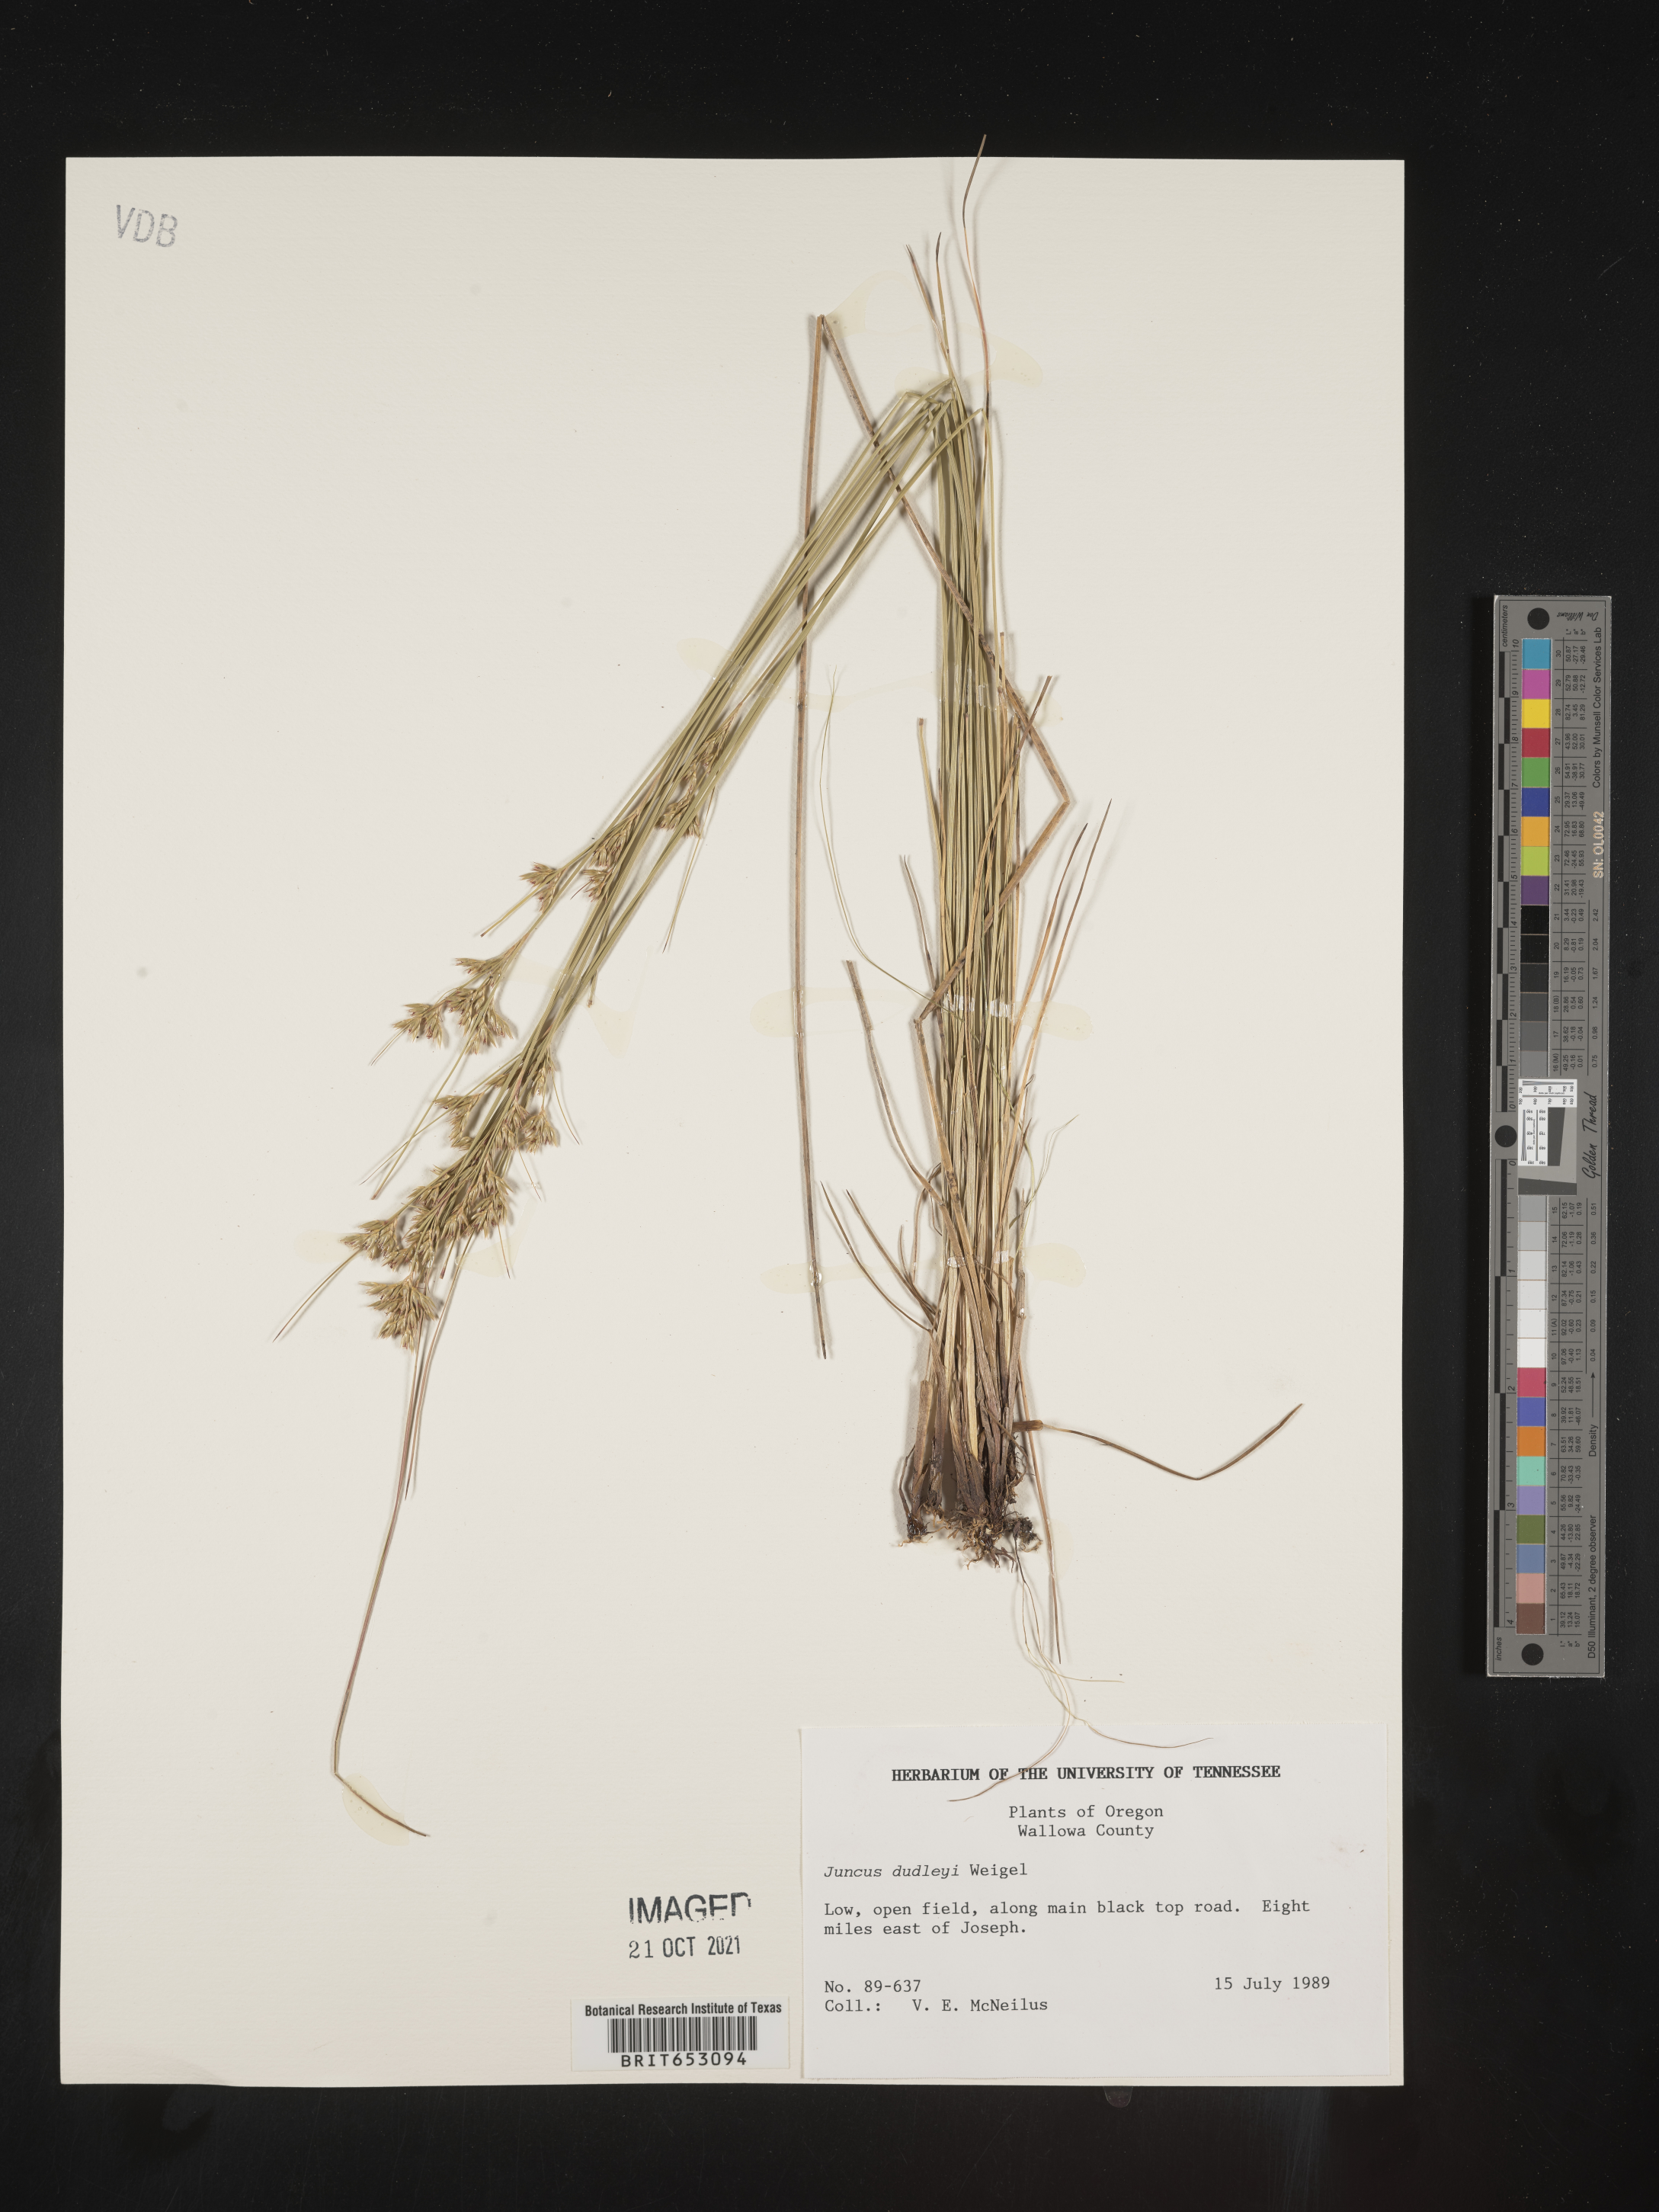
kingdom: Plantae
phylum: Tracheophyta
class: Liliopsida
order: Poales
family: Juncaceae
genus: Juncus
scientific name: Juncus dudleyi
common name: Dudley's rush
